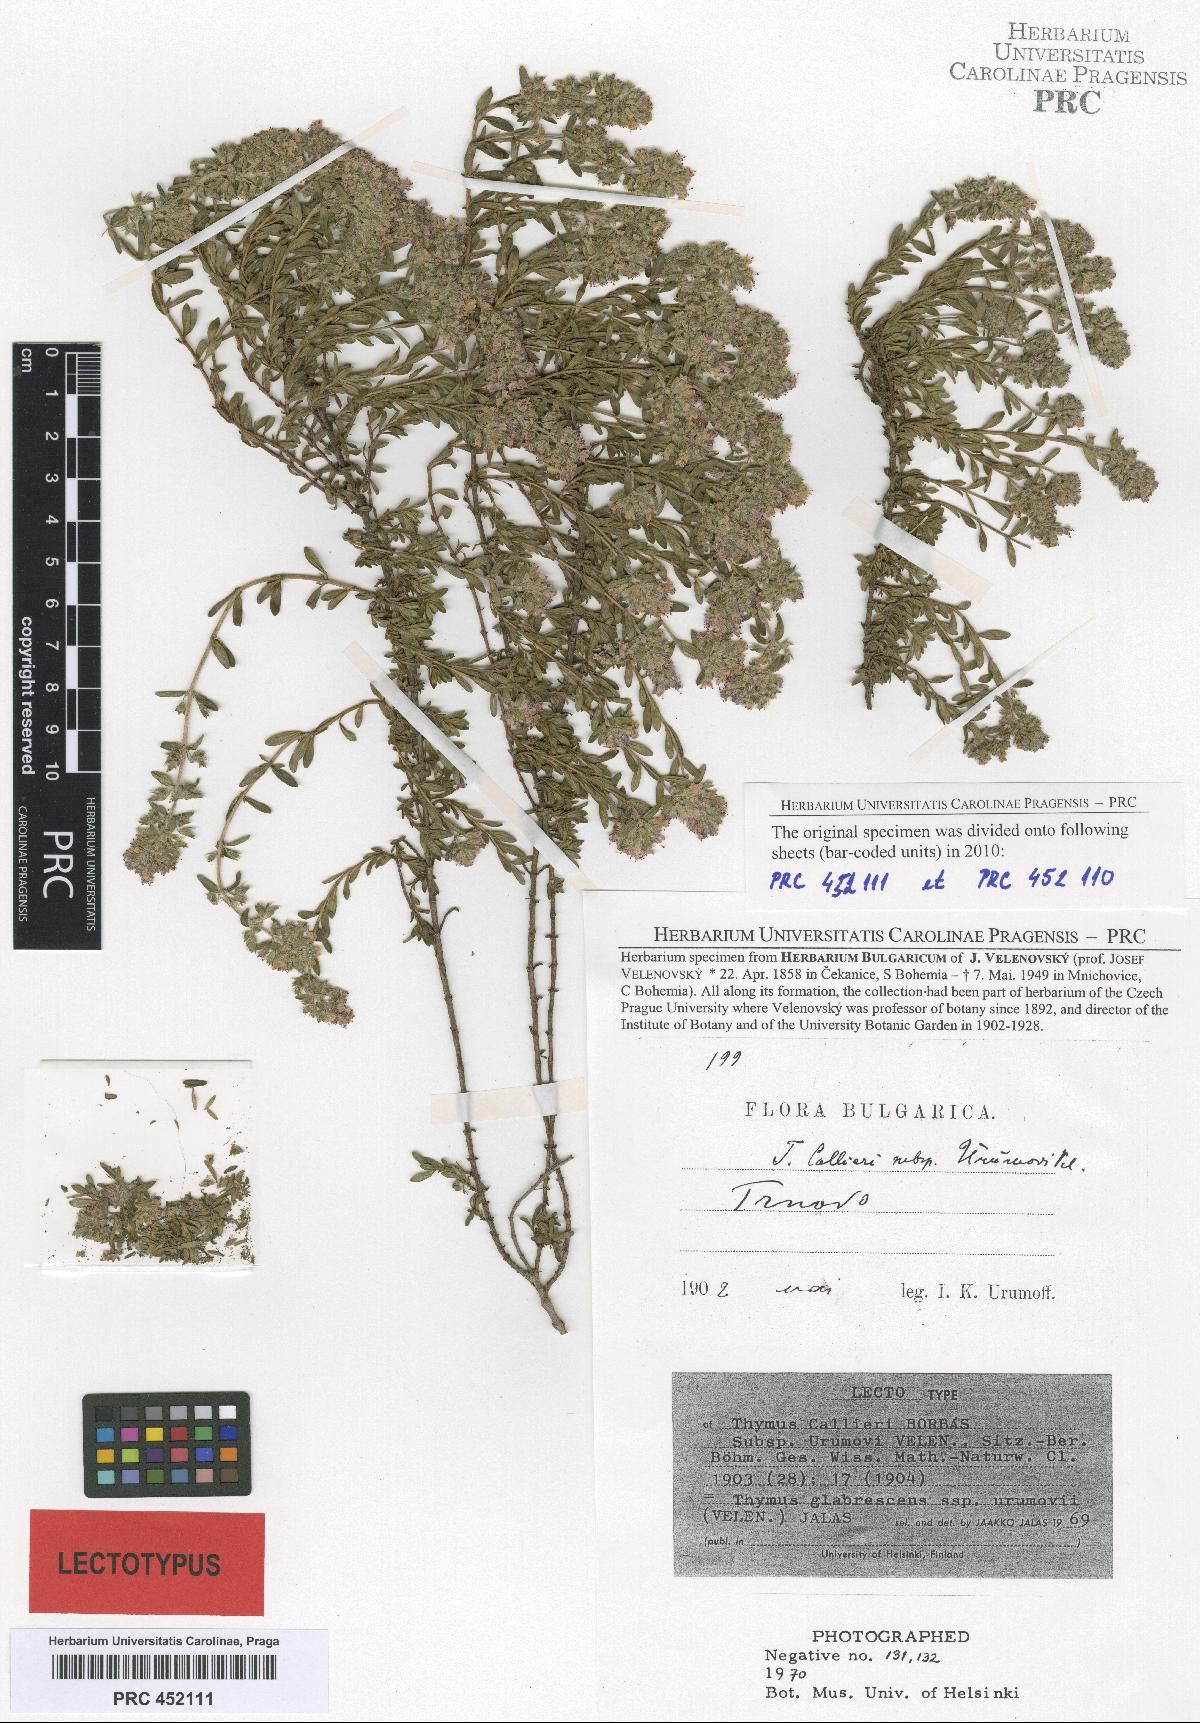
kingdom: Plantae
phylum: Tracheophyta
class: Magnoliopsida
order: Lamiales
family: Lamiaceae
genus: Thymus
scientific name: Thymus urumovii
